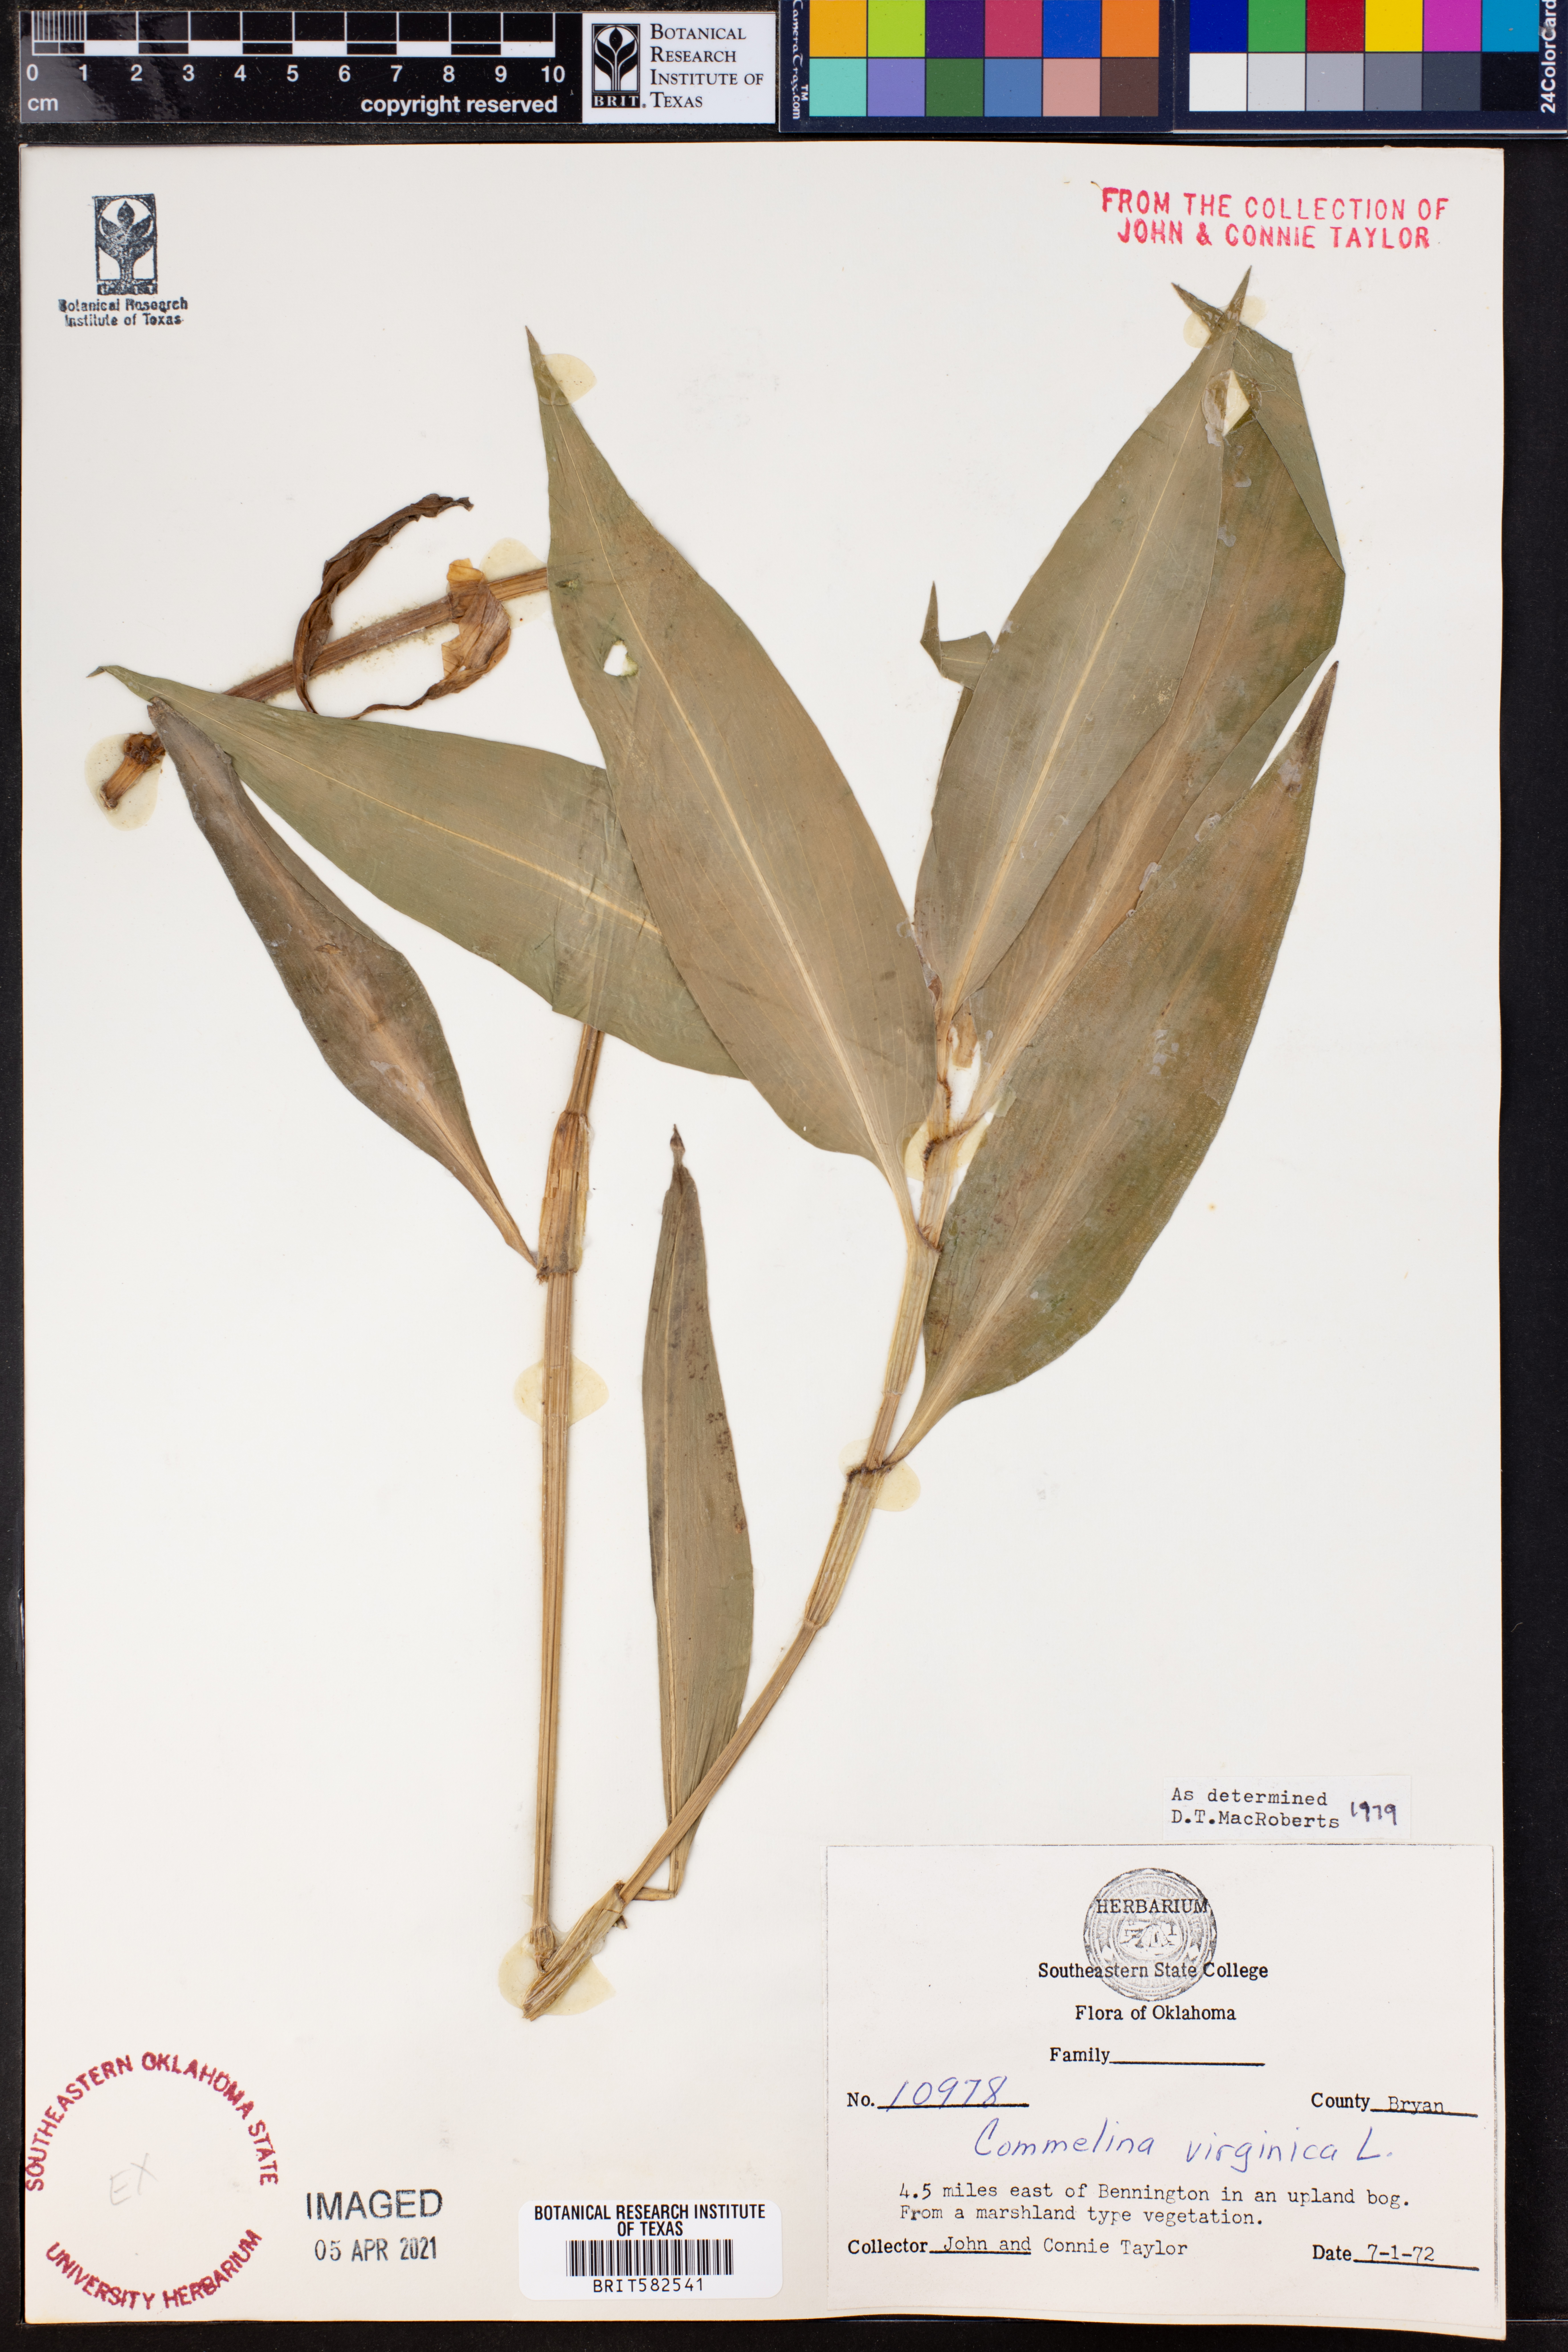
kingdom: Plantae
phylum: Tracheophyta
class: Liliopsida
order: Commelinales
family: Commelinaceae
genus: Commelina
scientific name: Commelina virginica
